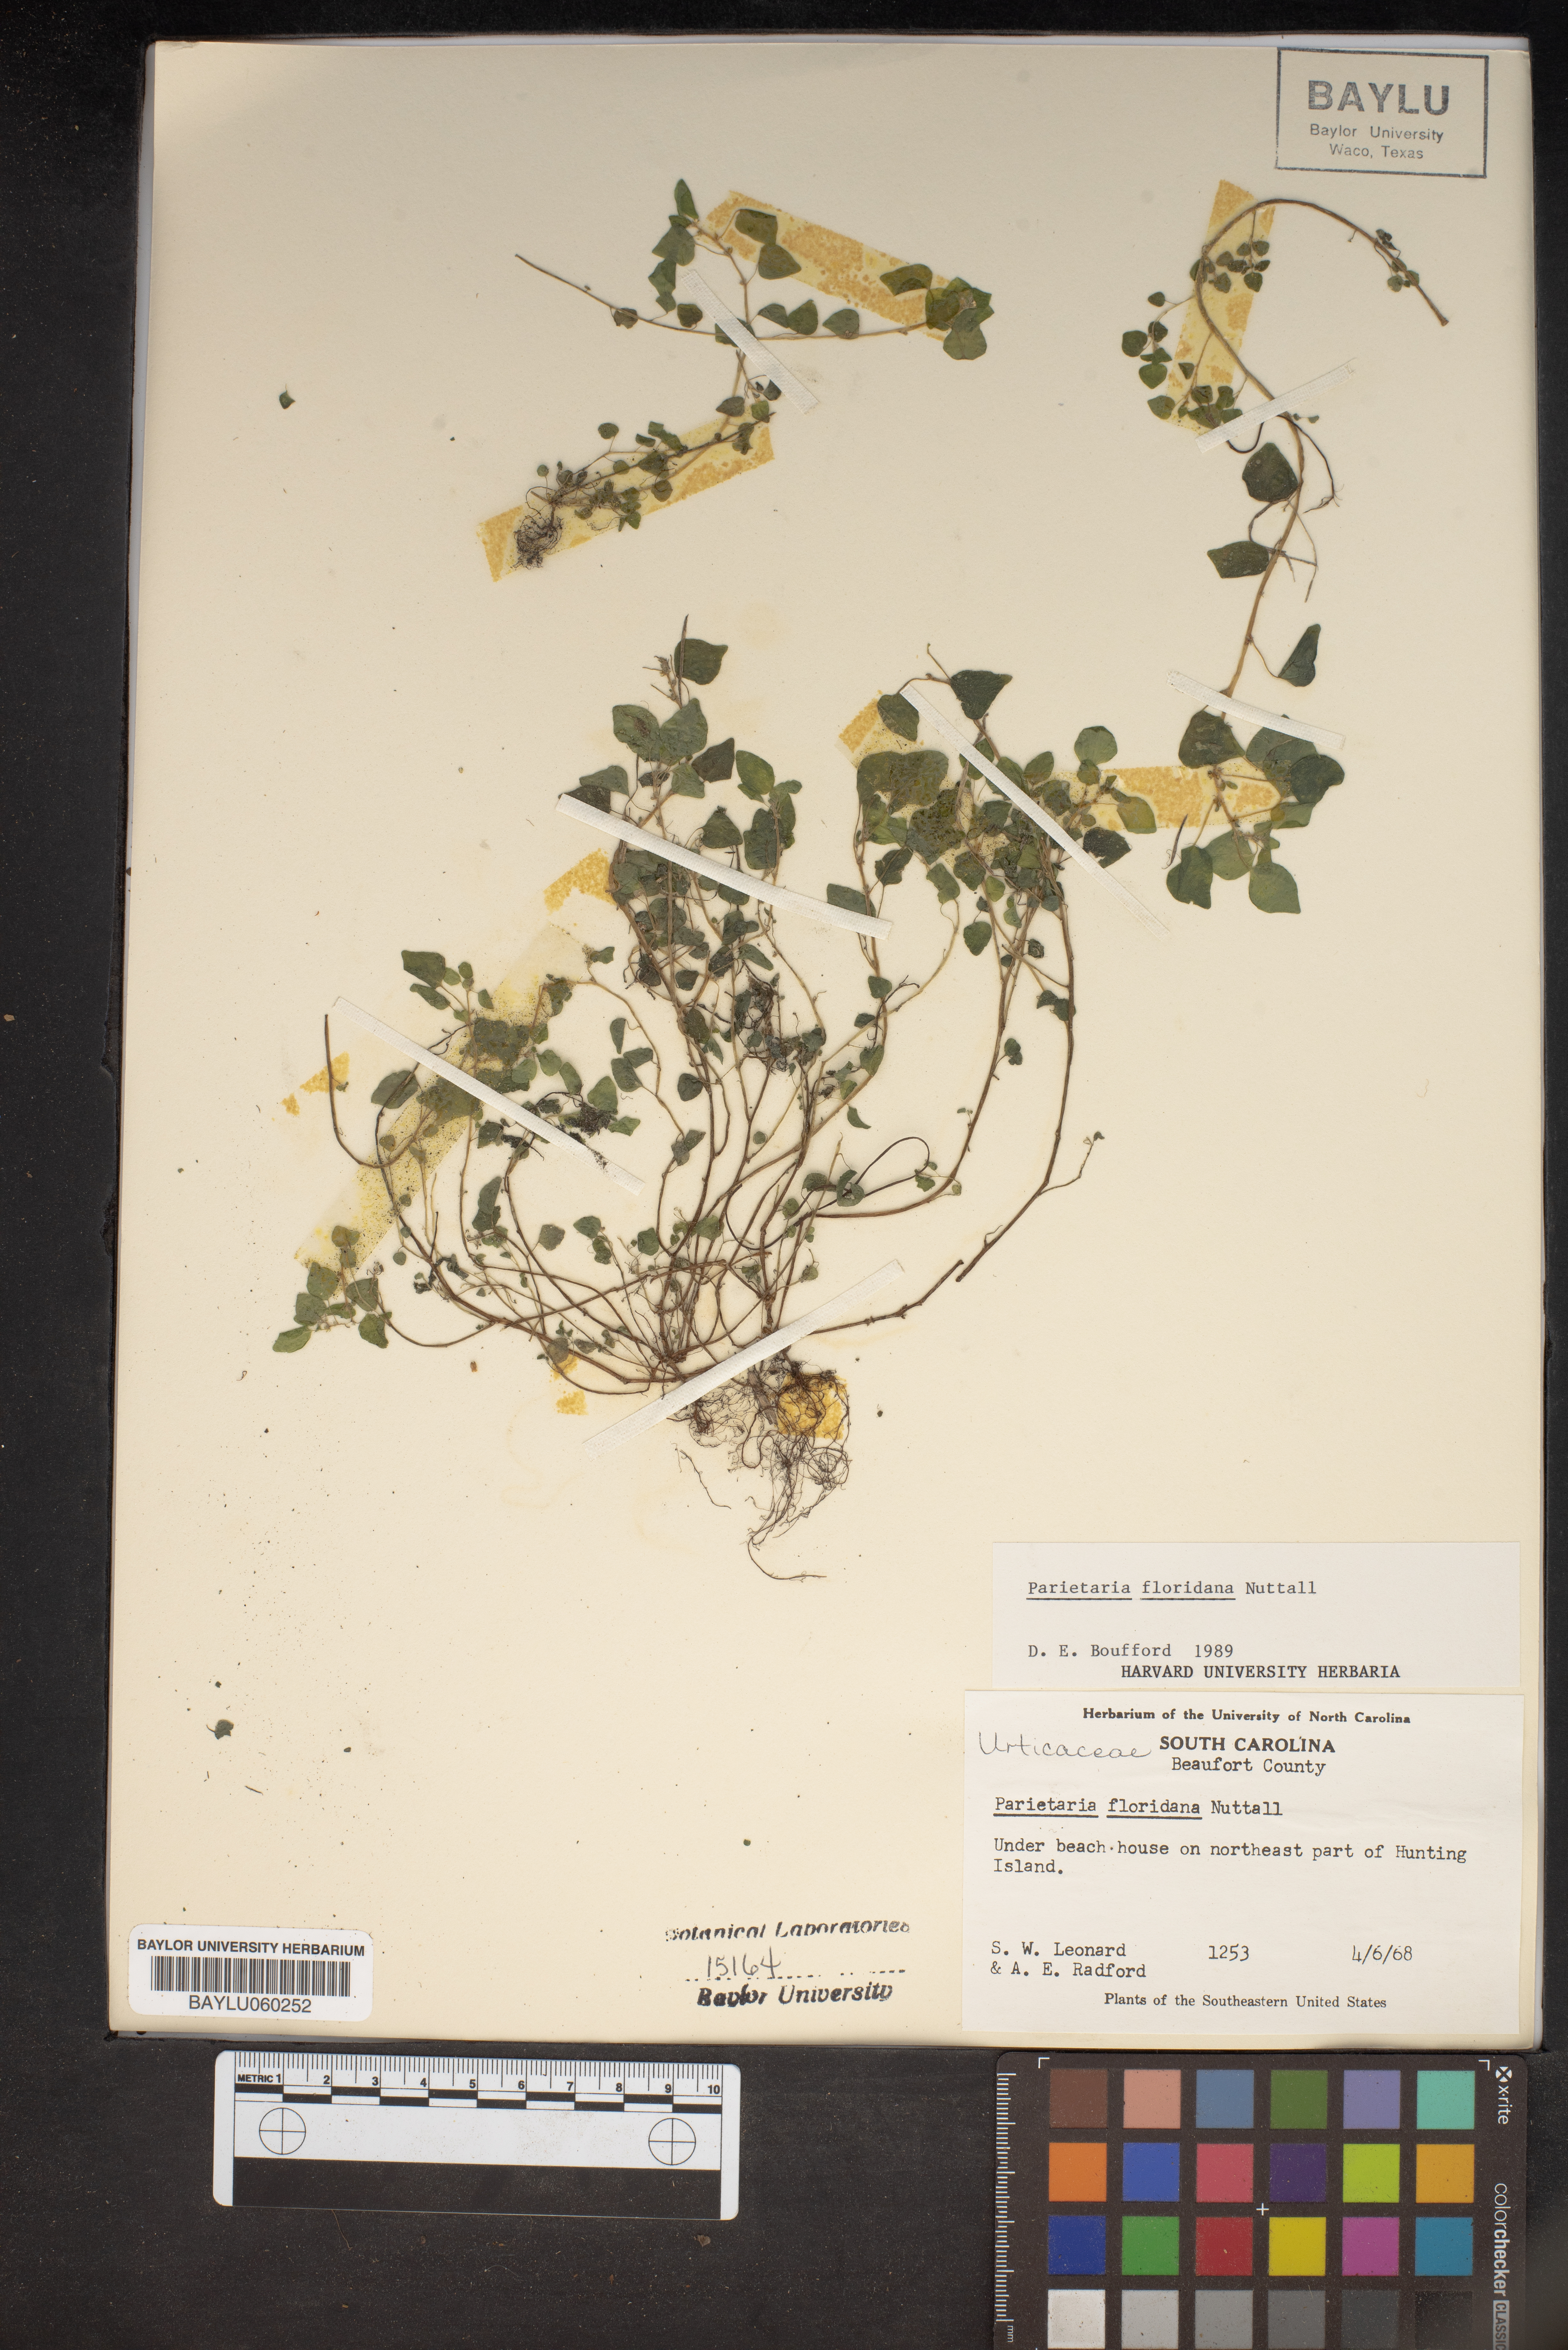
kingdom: Plantae
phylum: Tracheophyta
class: Magnoliopsida
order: Rosales
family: Urticaceae
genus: Parietaria
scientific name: Parietaria floridana
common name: Florida pellitory
